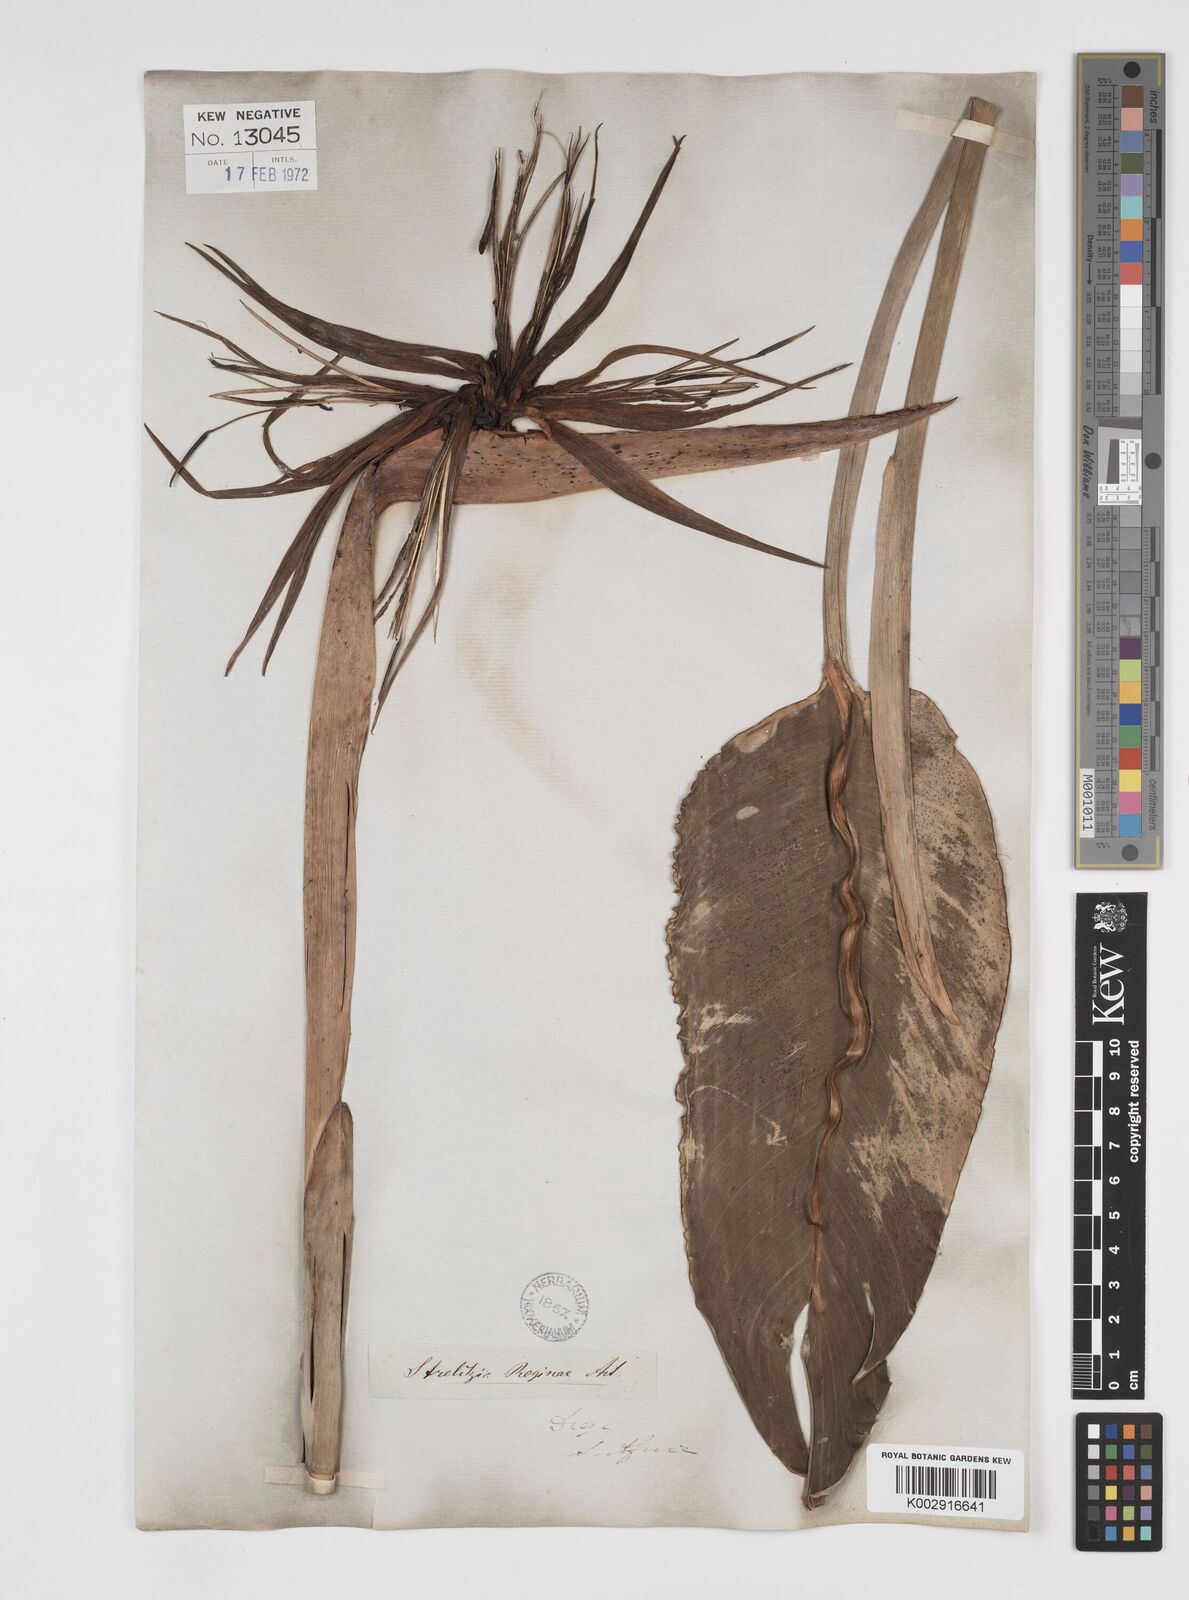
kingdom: Plantae
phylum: Tracheophyta
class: Liliopsida
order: Zingiberales
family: Strelitziaceae
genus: Strelitzia
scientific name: Strelitzia reginae
